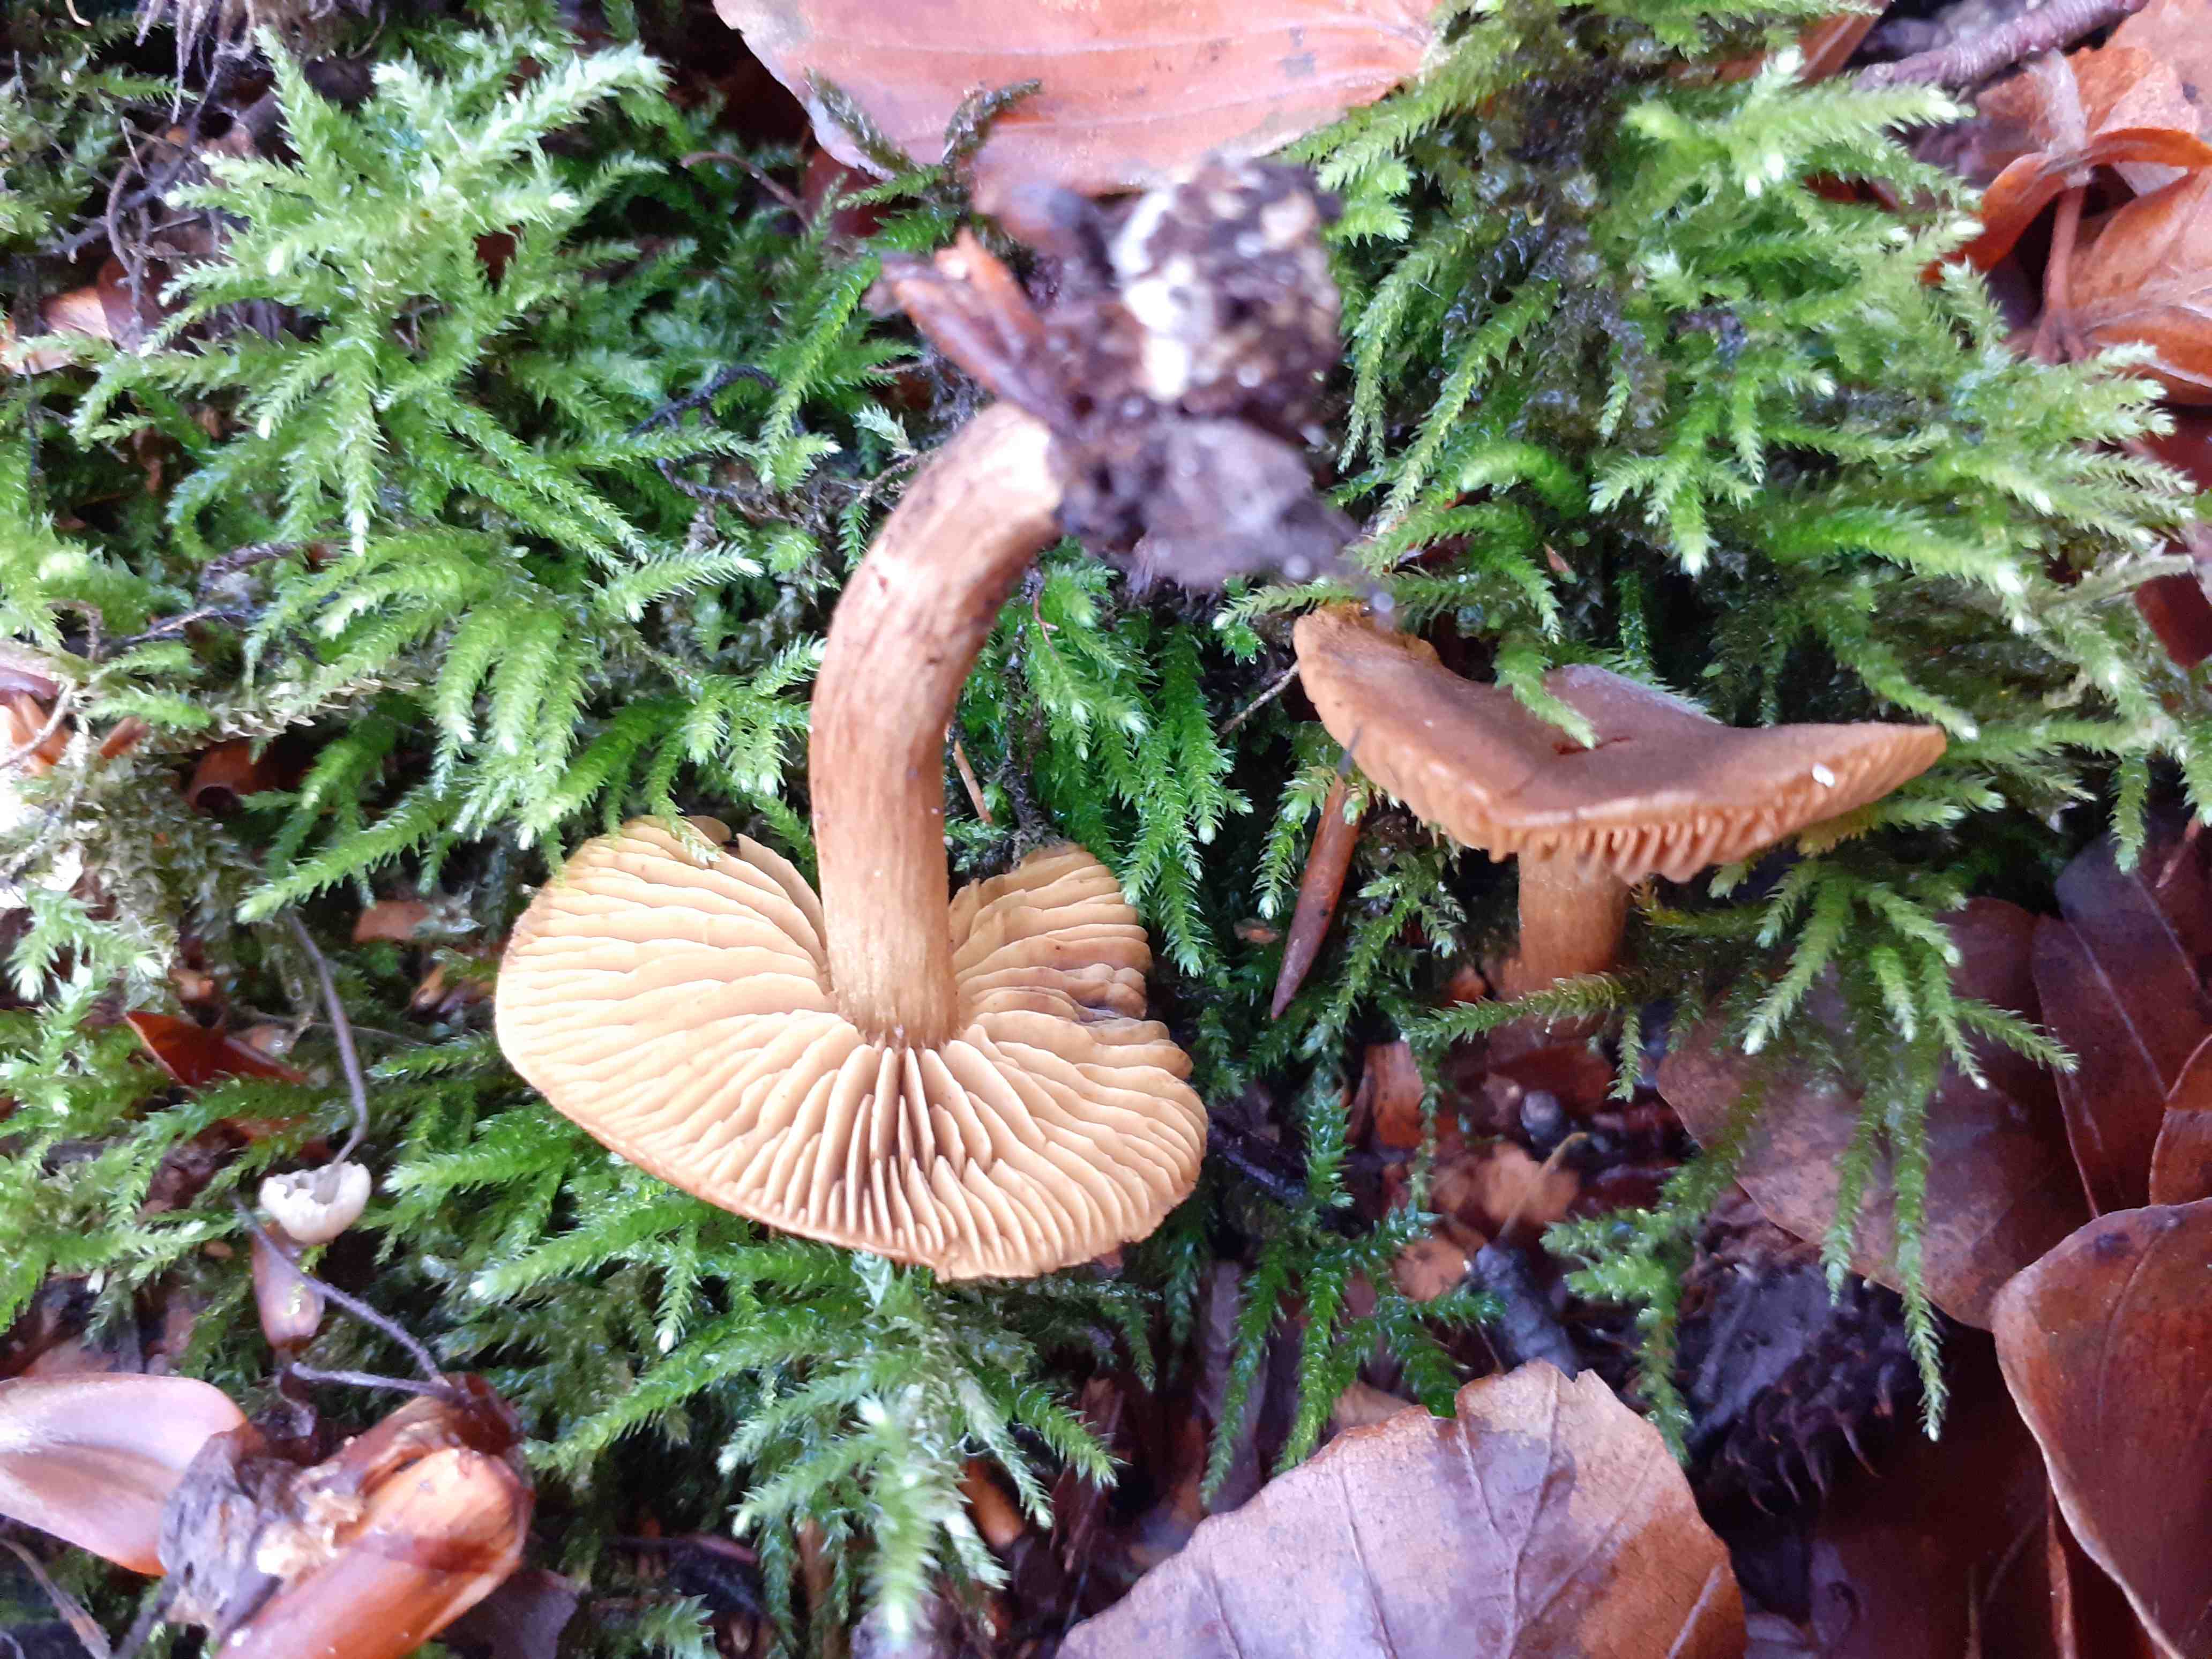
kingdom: Fungi
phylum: Basidiomycota
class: Agaricomycetes
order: Agaricales
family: Cortinariaceae
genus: Cortinarius
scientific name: Cortinarius olivaceofuscus
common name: olivenbrun slørhat
